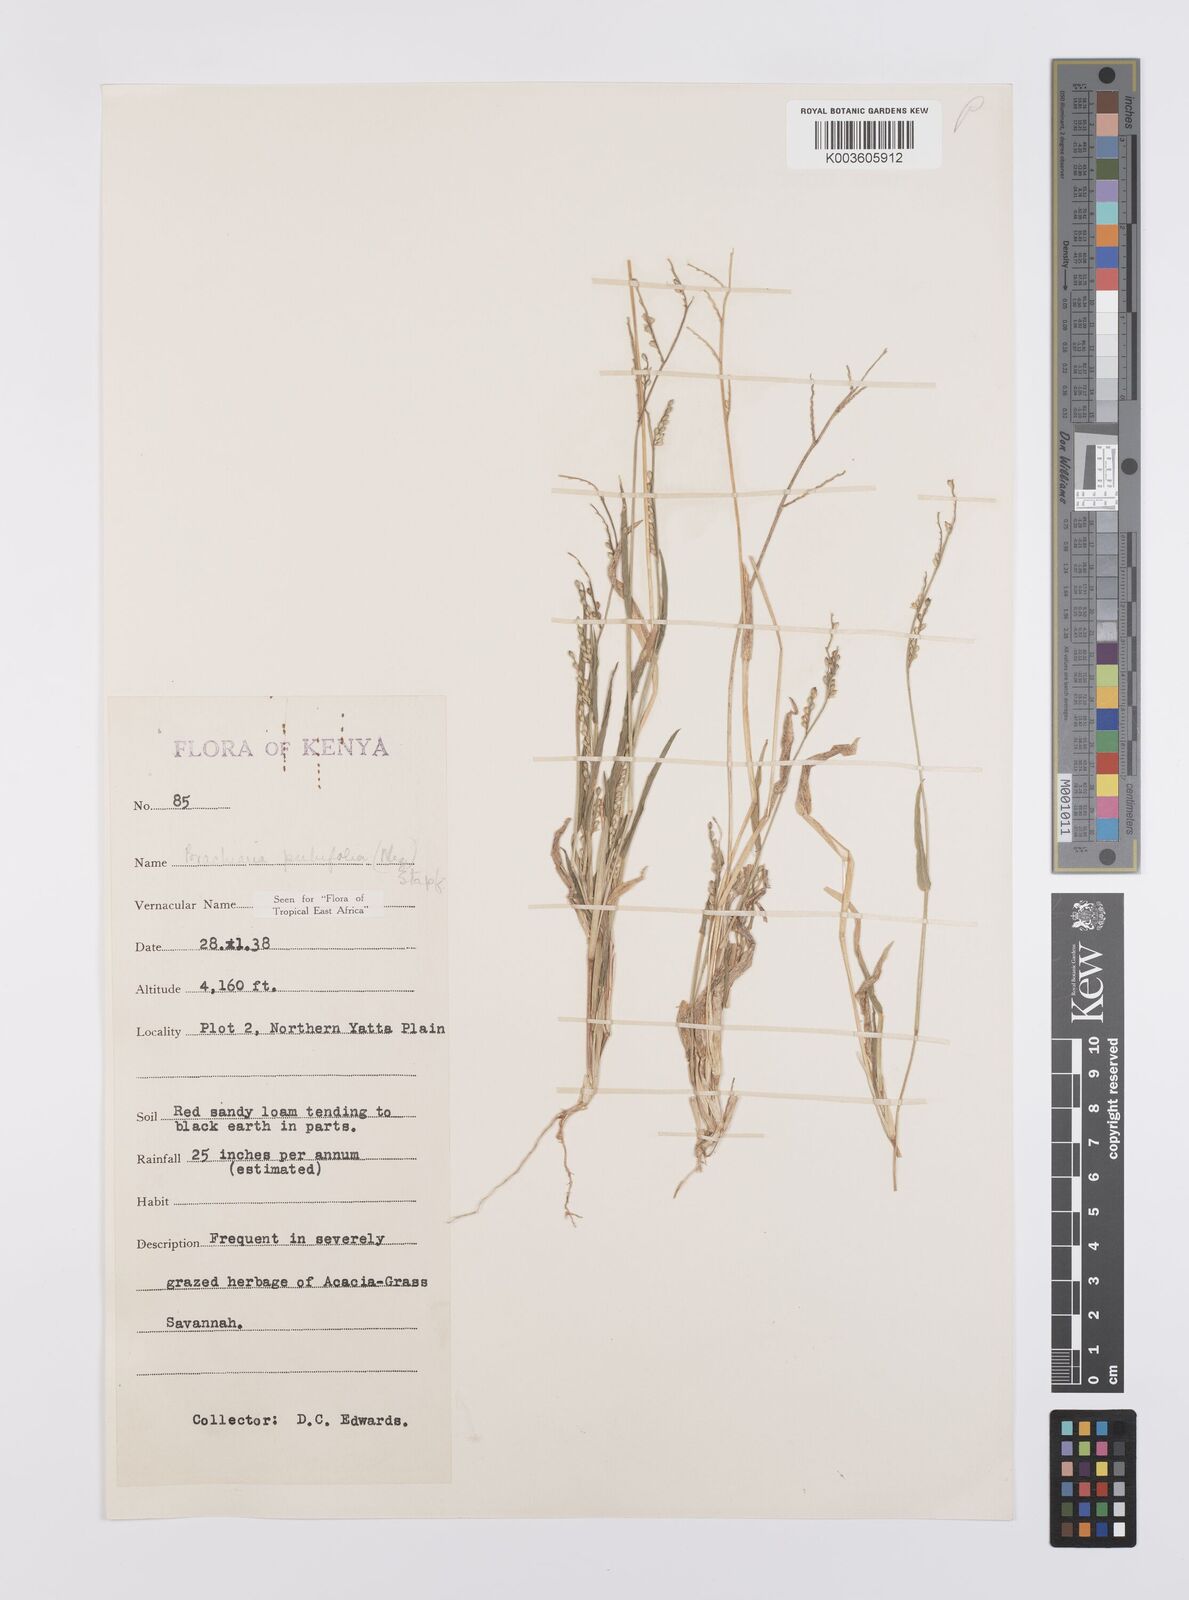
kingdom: Plantae
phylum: Tracheophyta
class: Liliopsida
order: Poales
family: Poaceae
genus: Urochloa
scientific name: Urochloa xantholeuca
